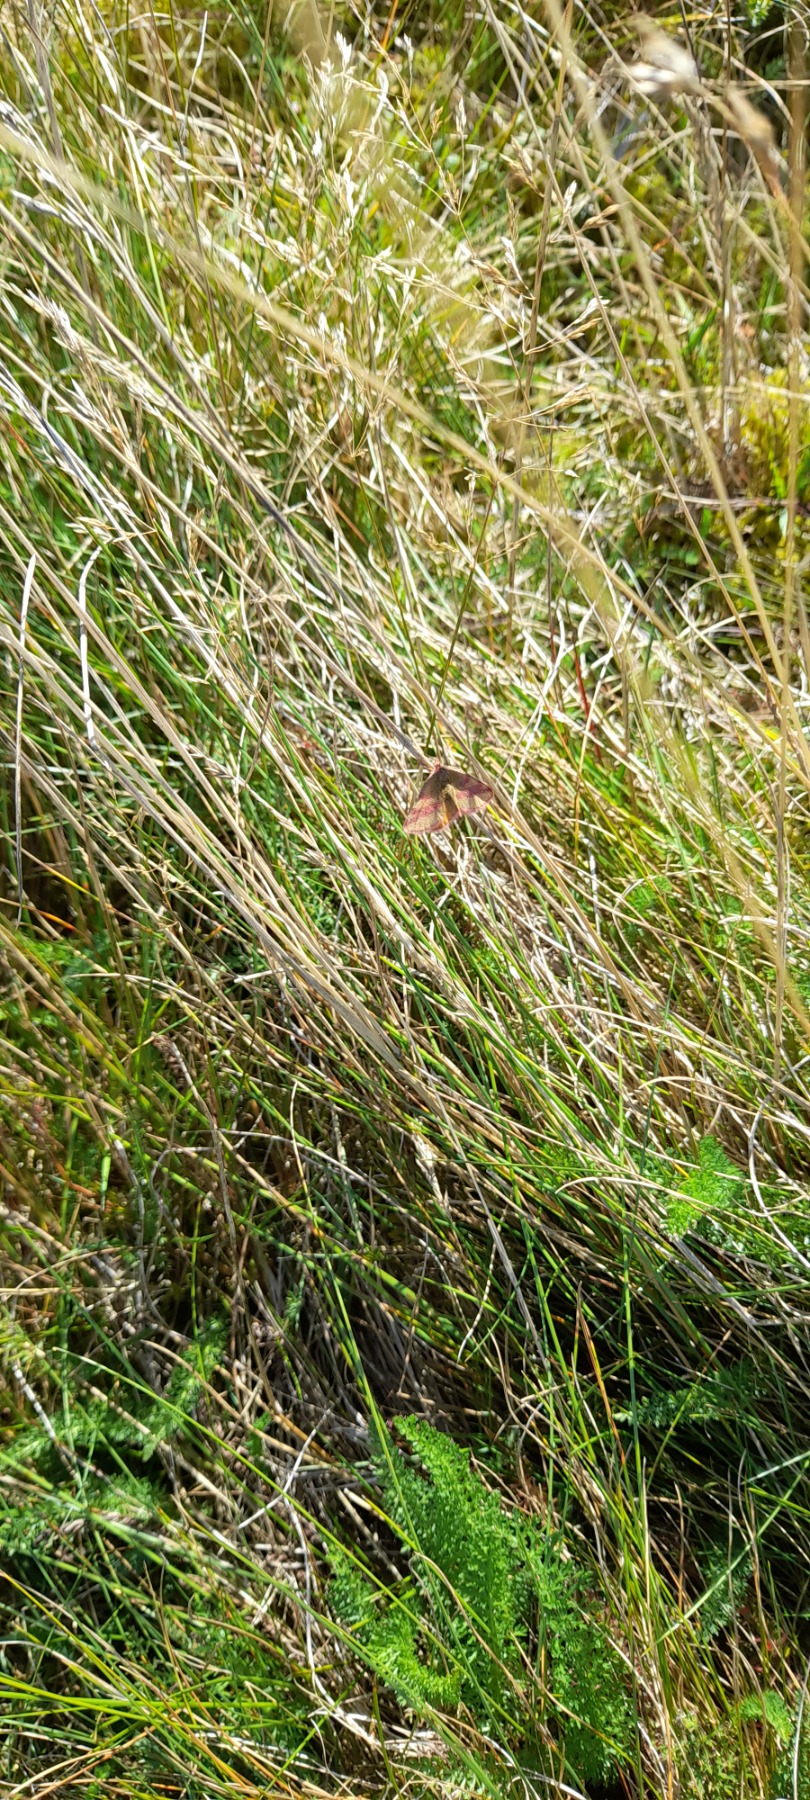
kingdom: Animalia
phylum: Arthropoda
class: Insecta
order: Lepidoptera
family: Geometridae
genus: Lythria
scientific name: Lythria cruentaria
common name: Purpurmåler
